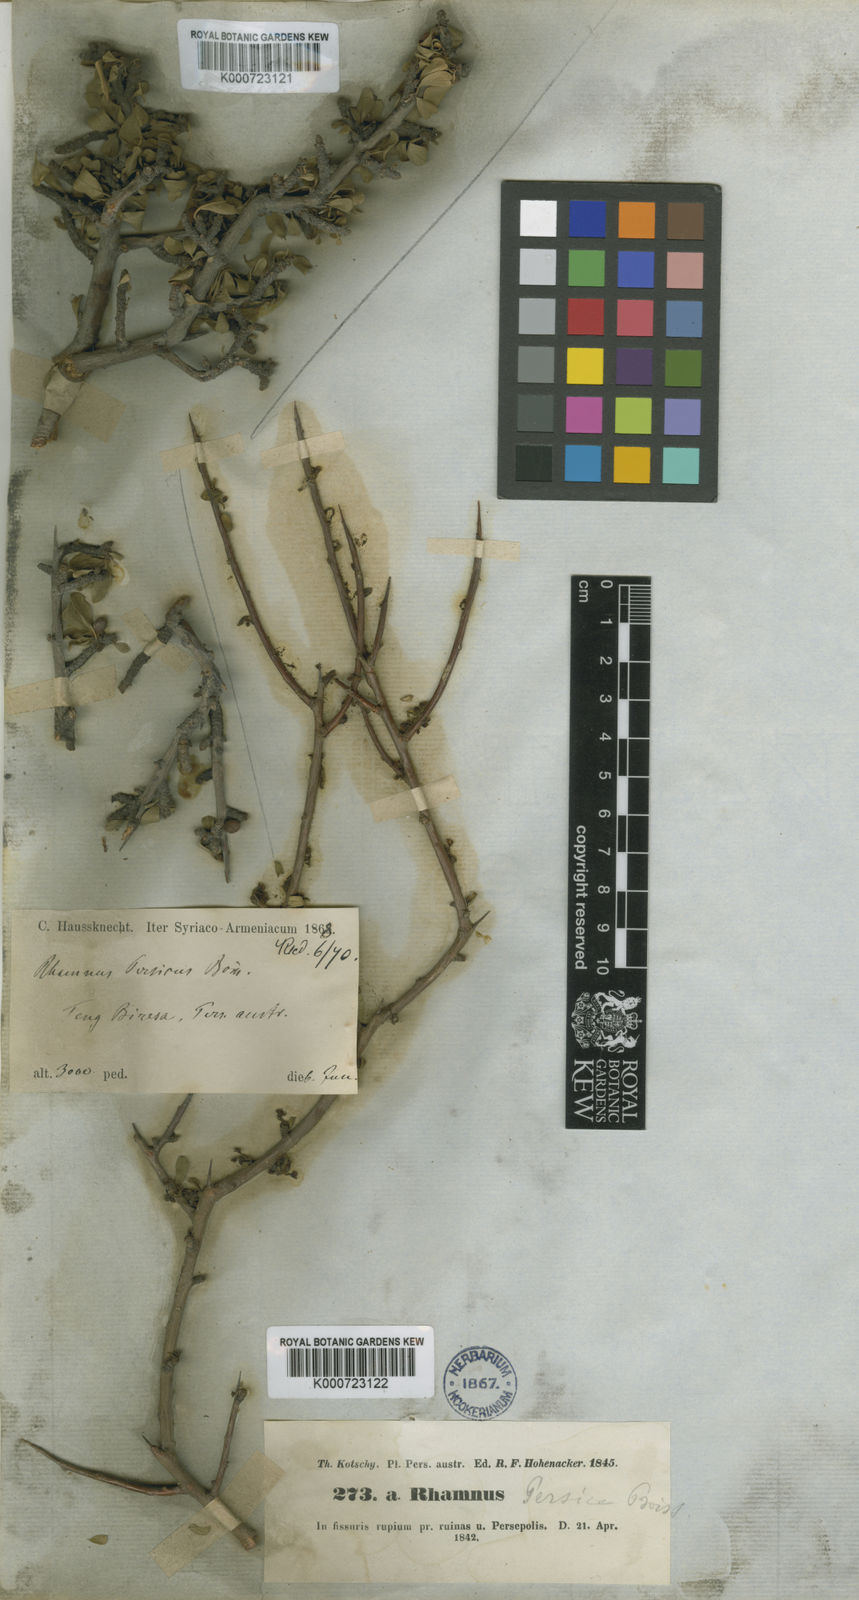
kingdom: Plantae
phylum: Tracheophyta
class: Magnoliopsida
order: Rosales
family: Rhamnaceae
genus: Rhamnus
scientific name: Rhamnus persica
